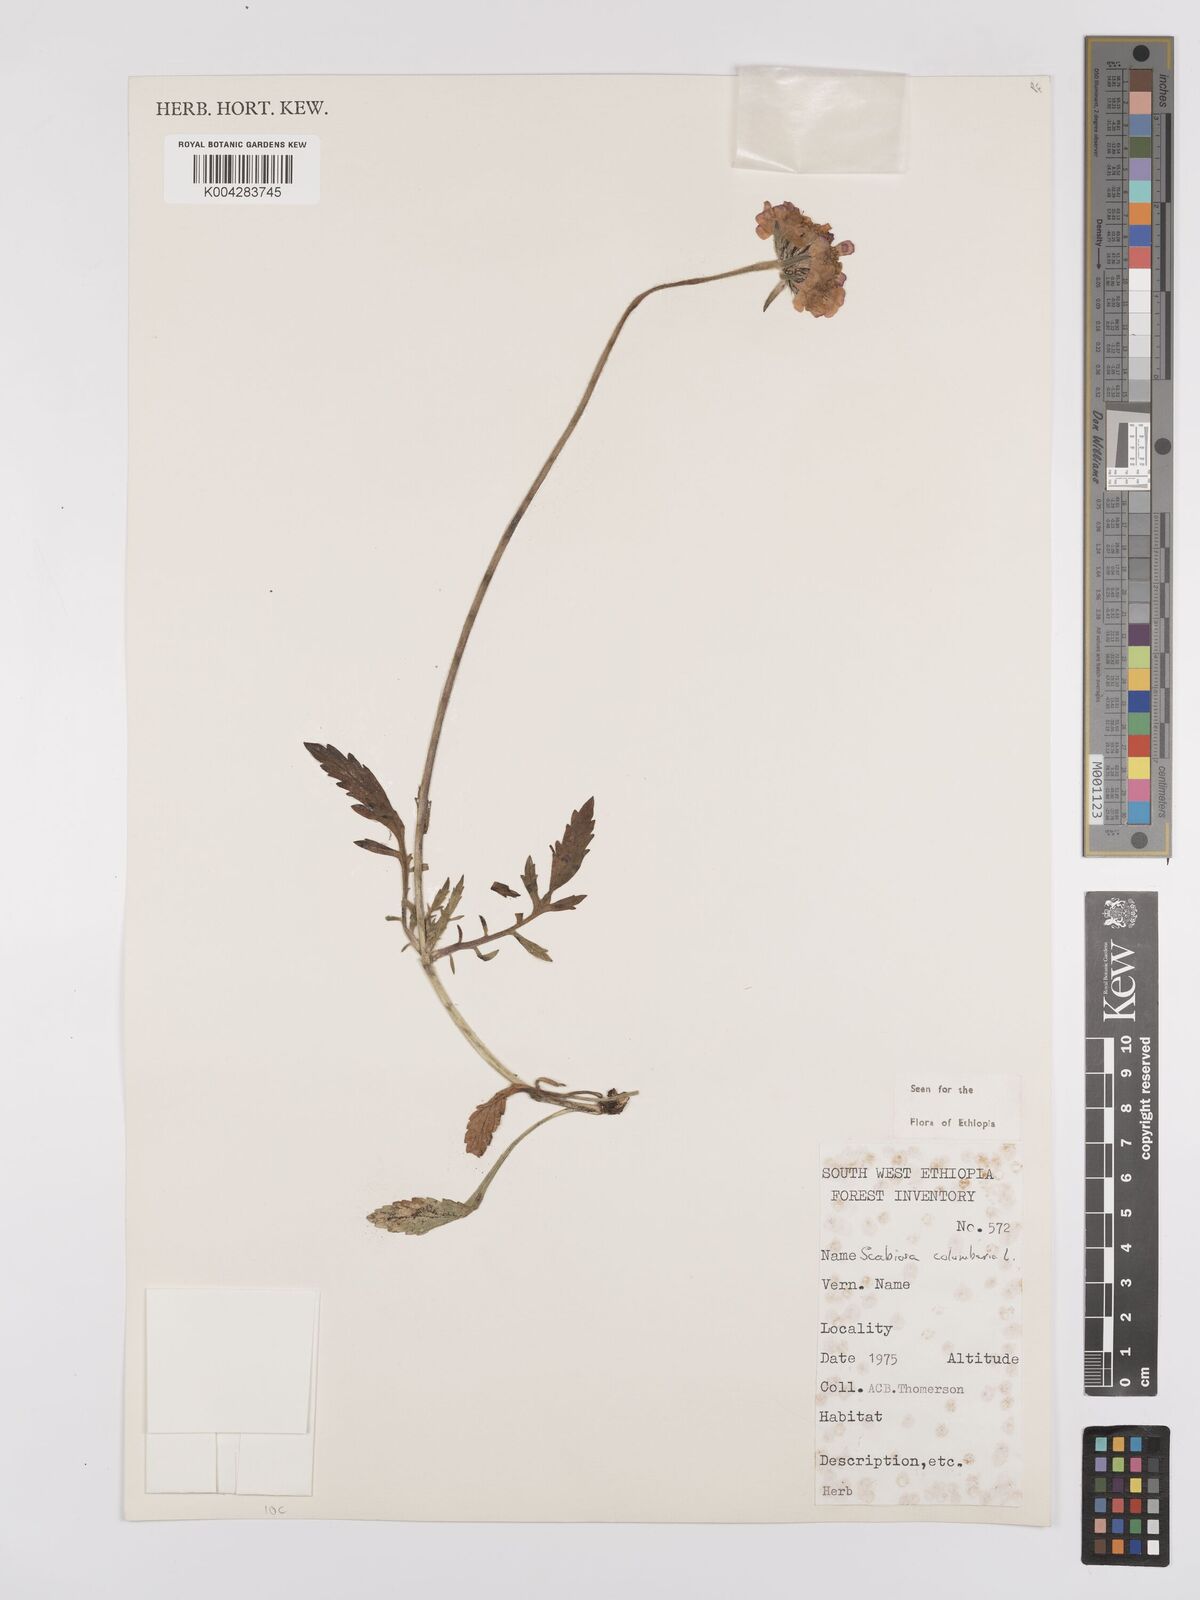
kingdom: Plantae
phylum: Tracheophyta
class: Magnoliopsida
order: Dipsacales
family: Caprifoliaceae
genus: Scabiosa
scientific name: Scabiosa columbaria
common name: Small scabious
